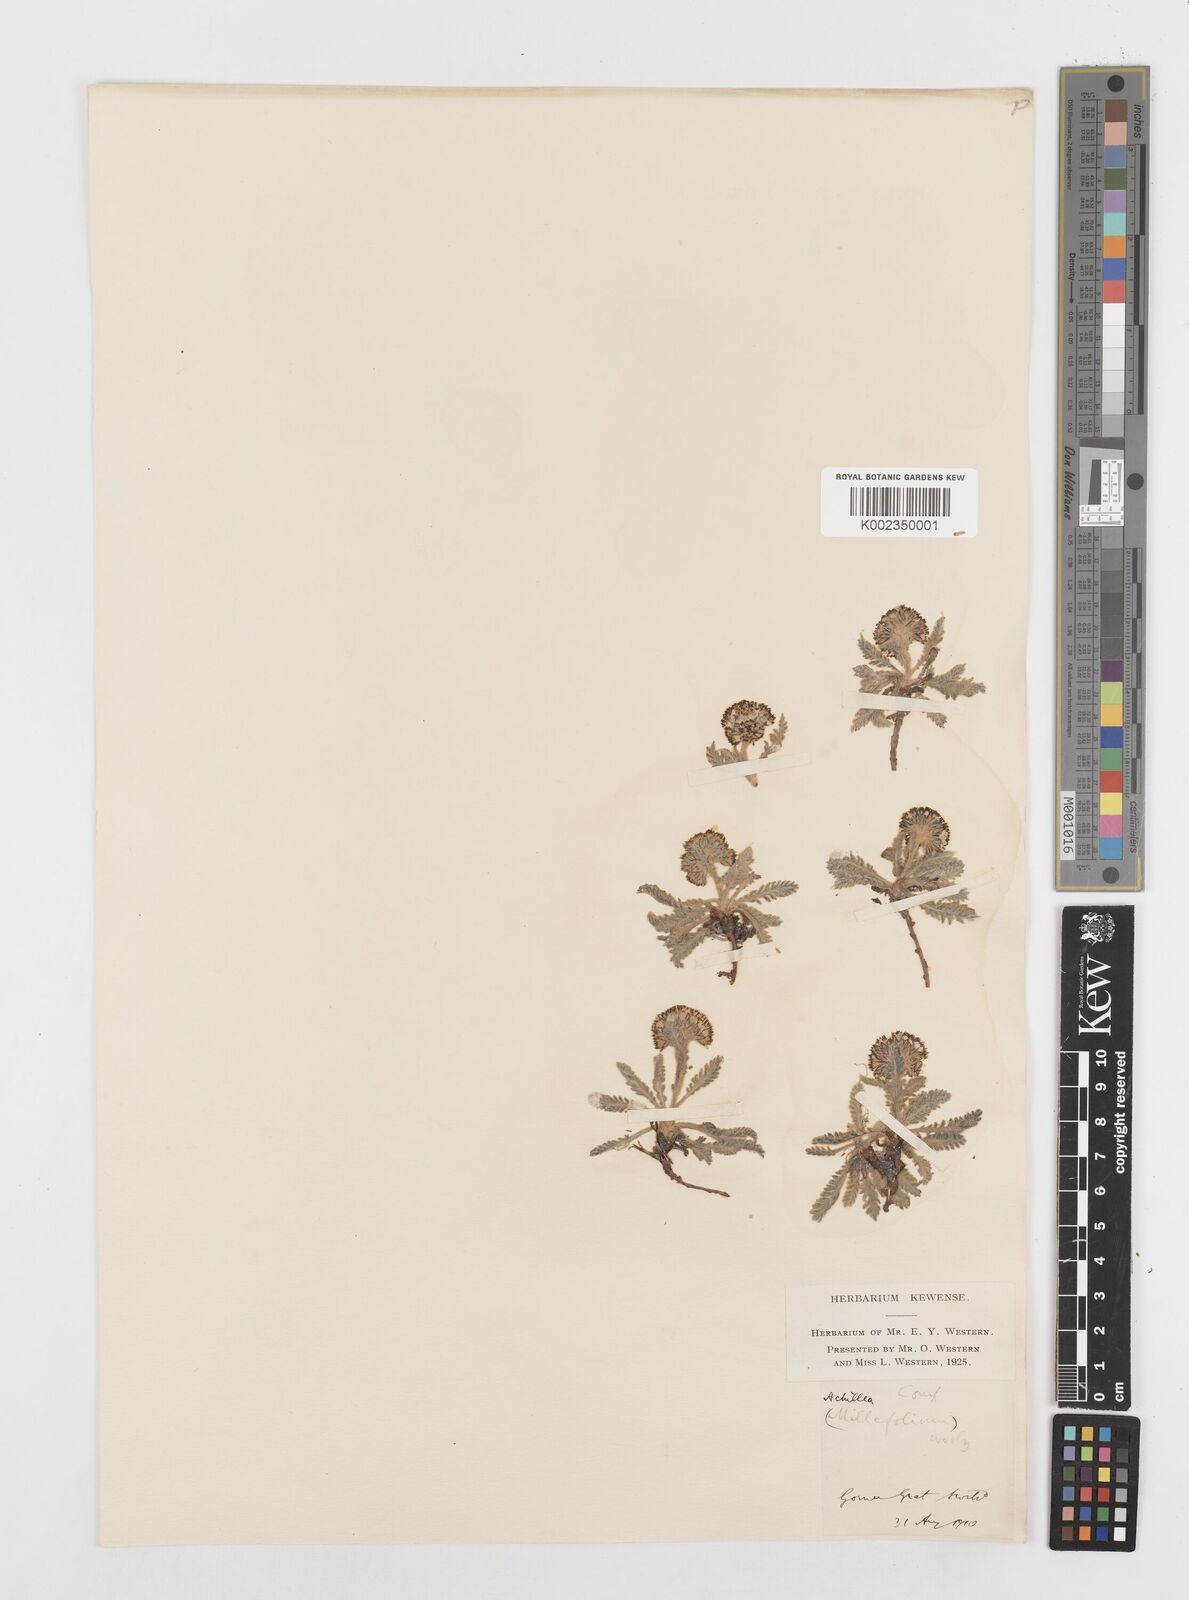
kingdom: Plantae
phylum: Tracheophyta
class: Magnoliopsida
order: Asterales
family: Asteraceae
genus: Achillea
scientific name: Achillea nana
